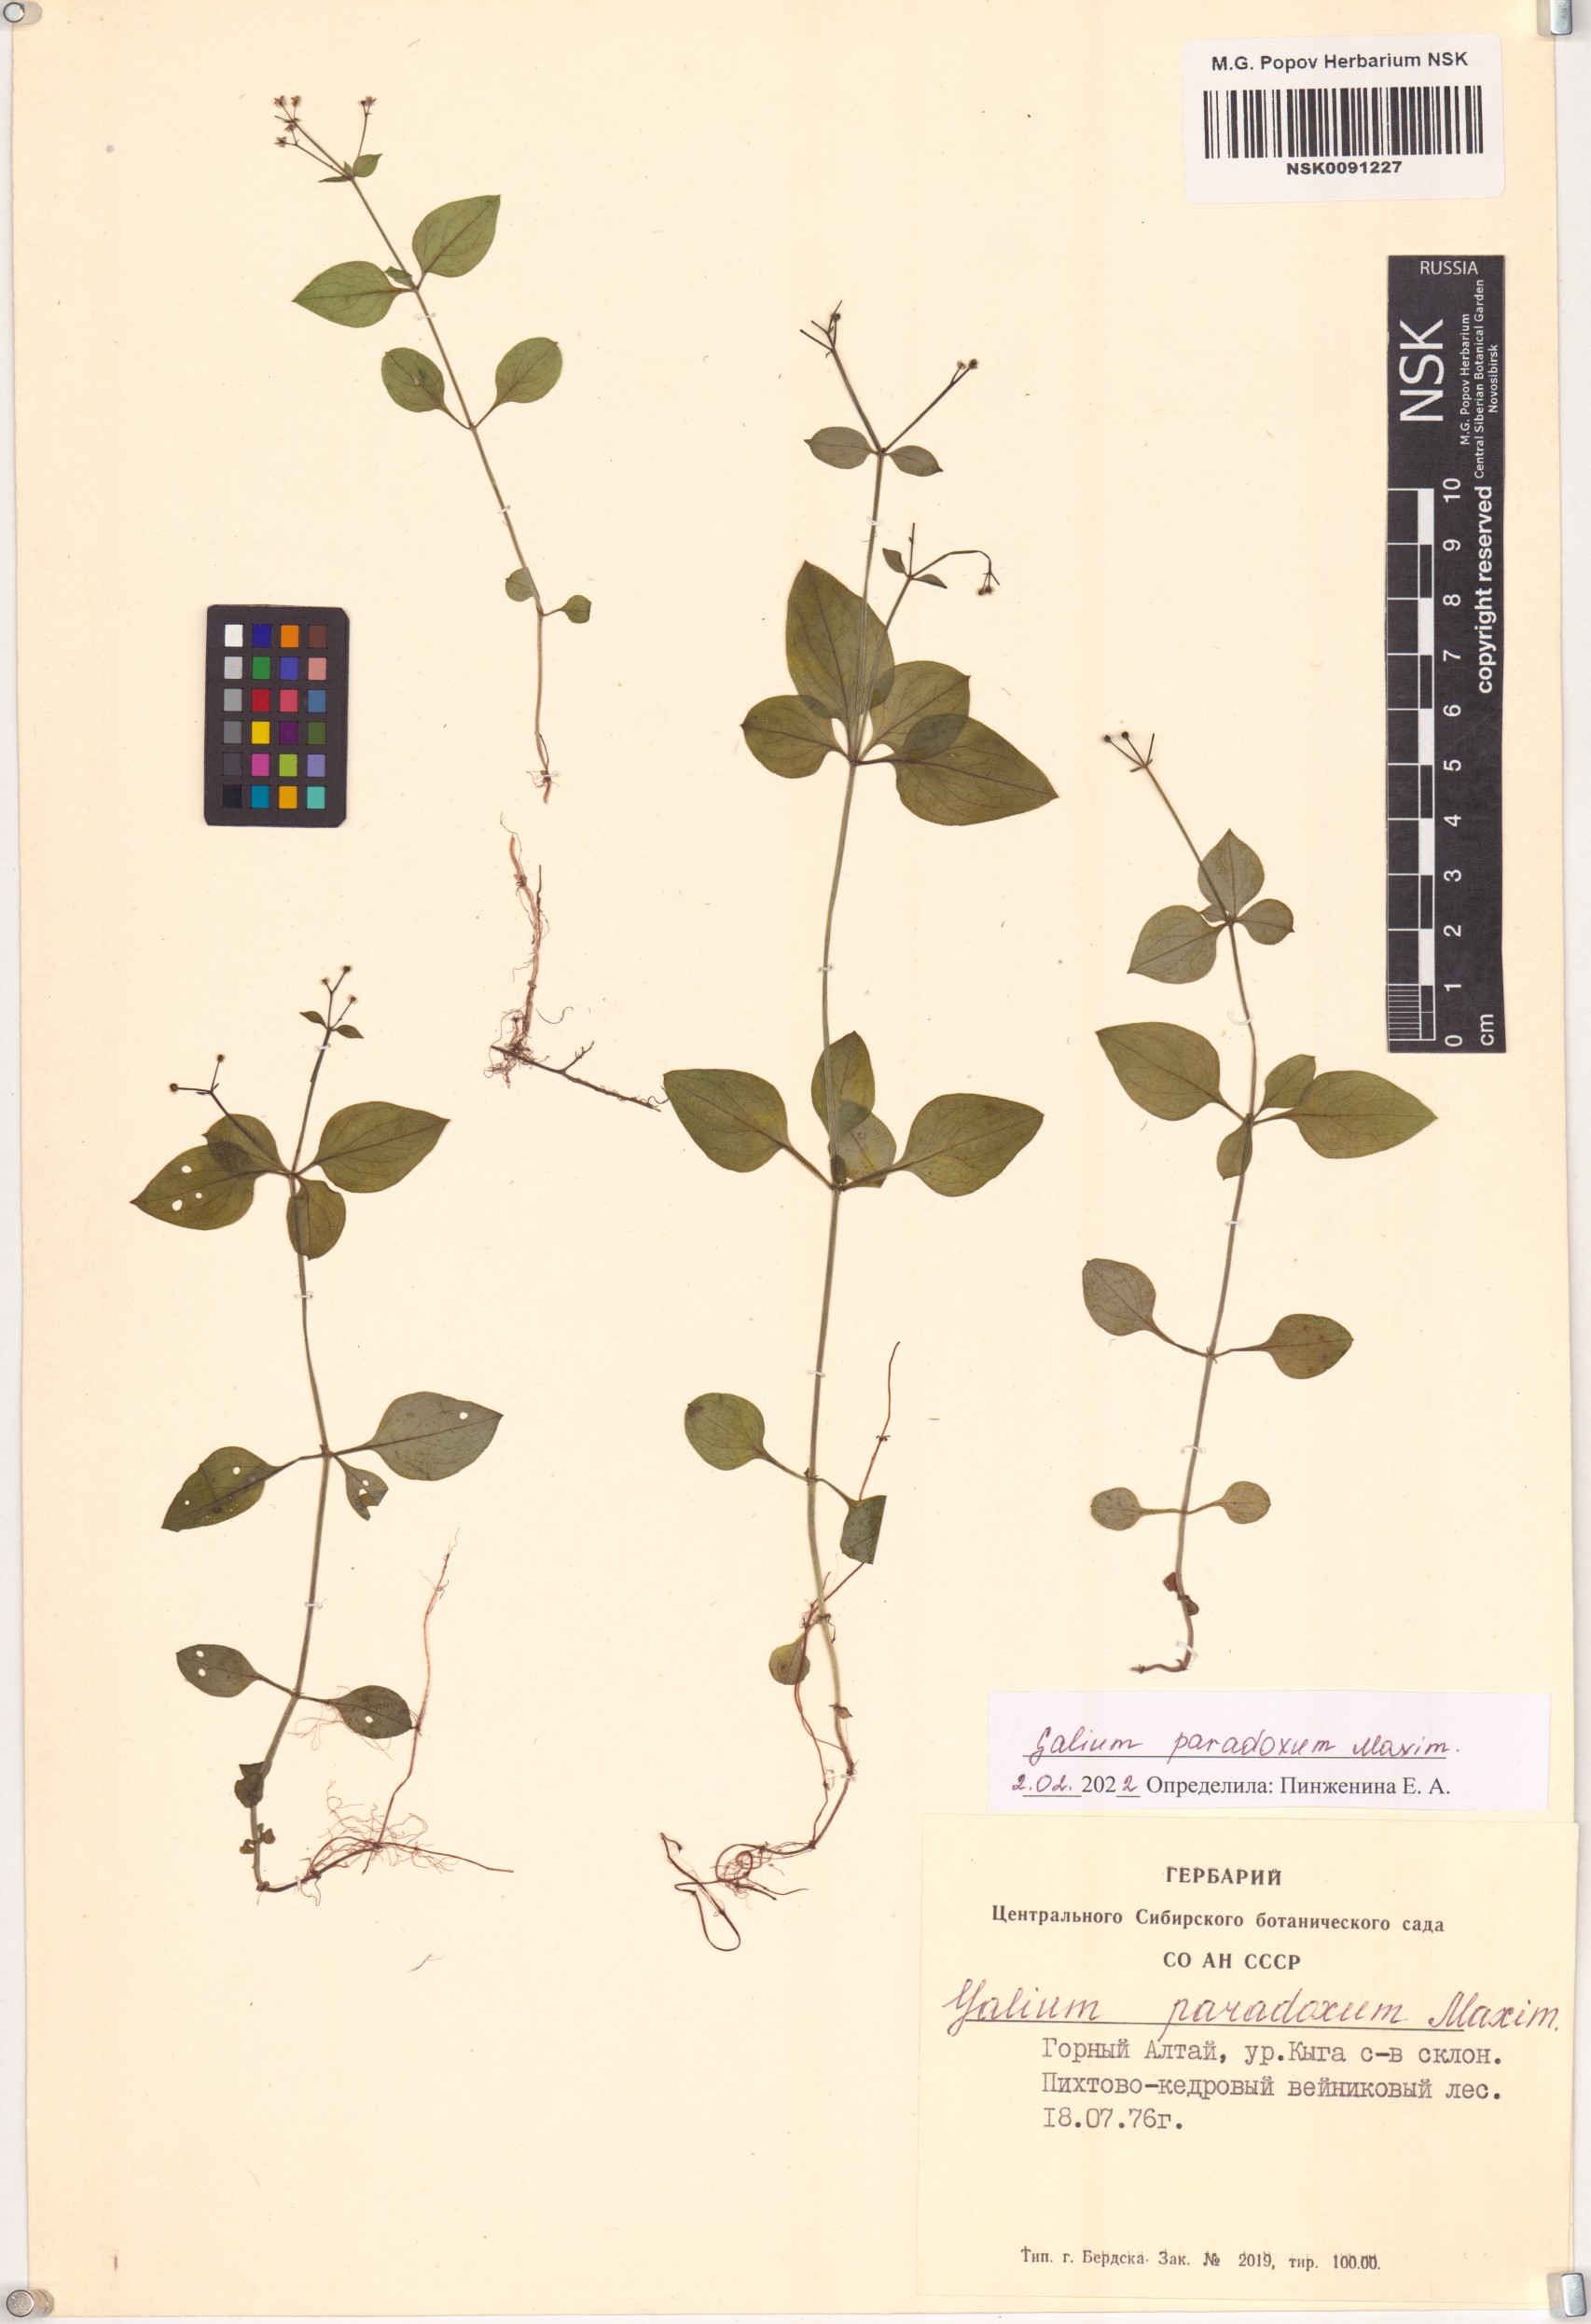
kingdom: Plantae
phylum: Tracheophyta
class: Magnoliopsida
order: Gentianales
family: Rubiaceae
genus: Pseudogalium
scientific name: Pseudogalium paradoxum
